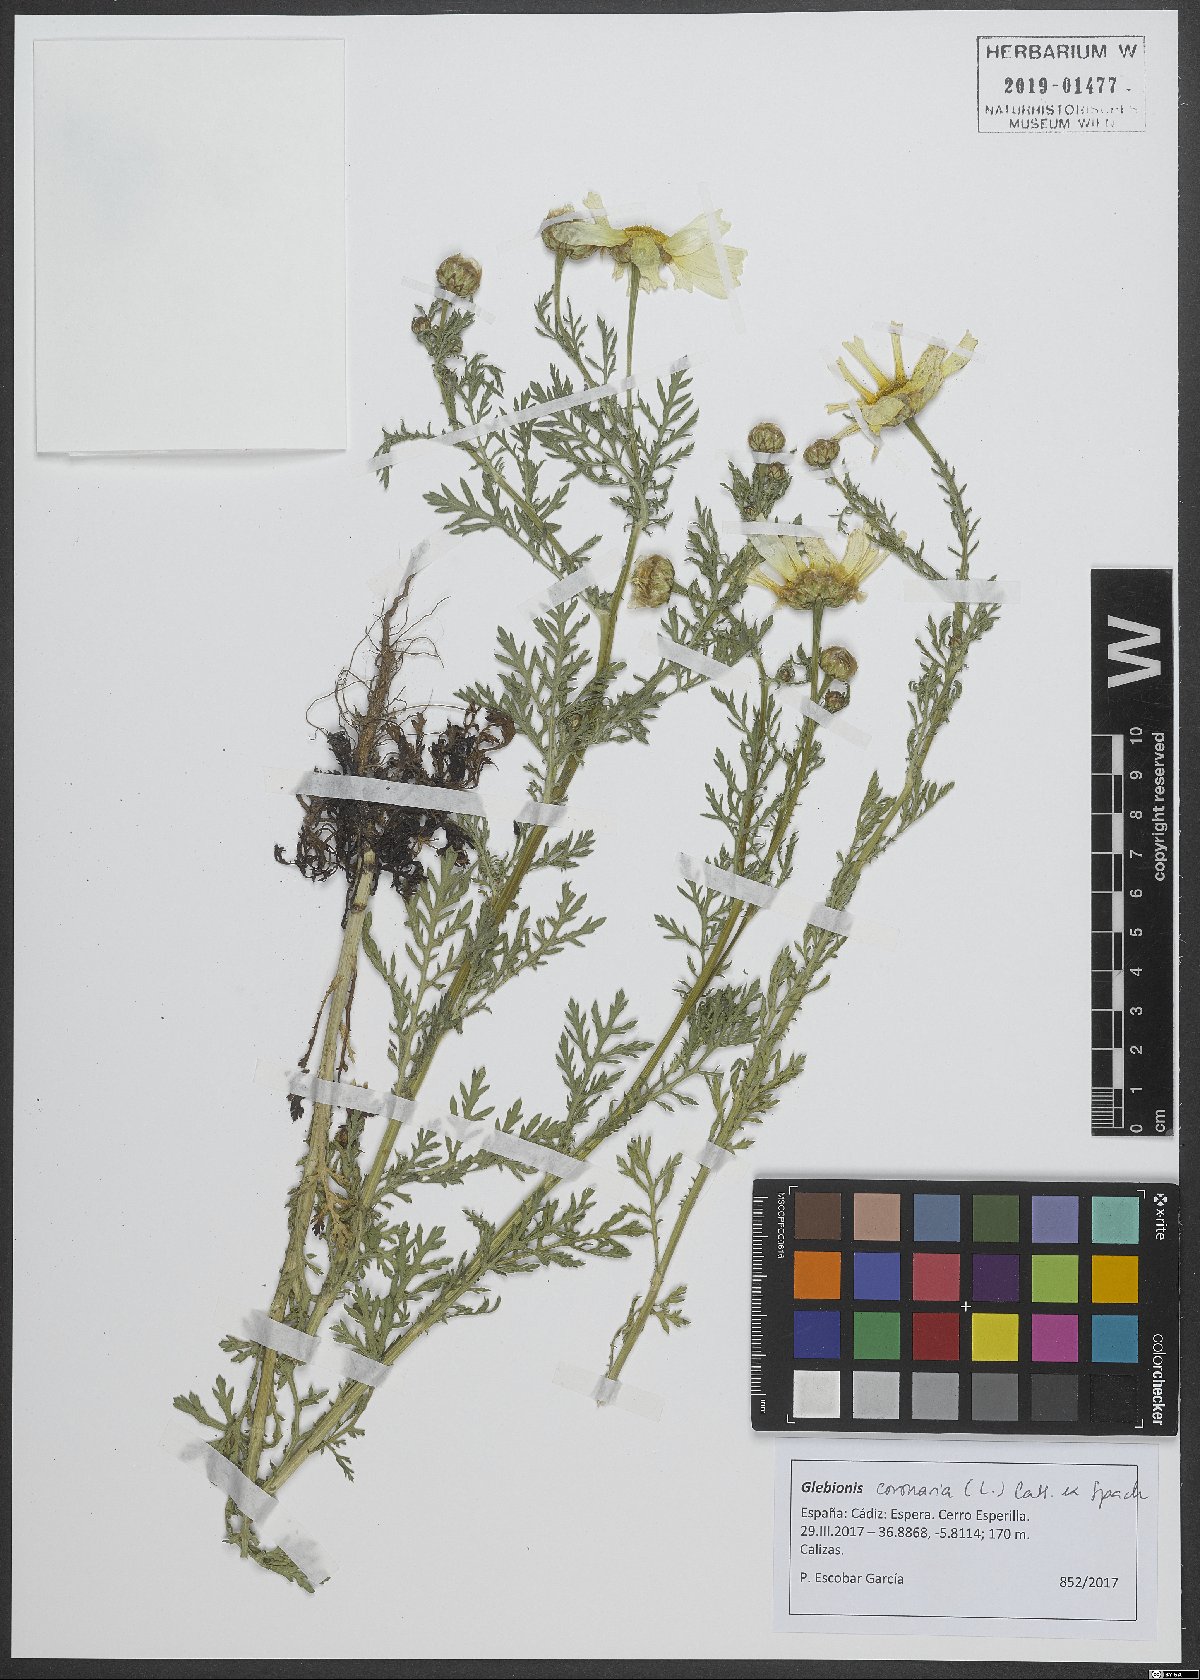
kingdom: Plantae
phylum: Tracheophyta
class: Magnoliopsida
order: Asterales
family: Asteraceae
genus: Glebionis
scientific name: Glebionis coronaria
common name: Crowndaisy
